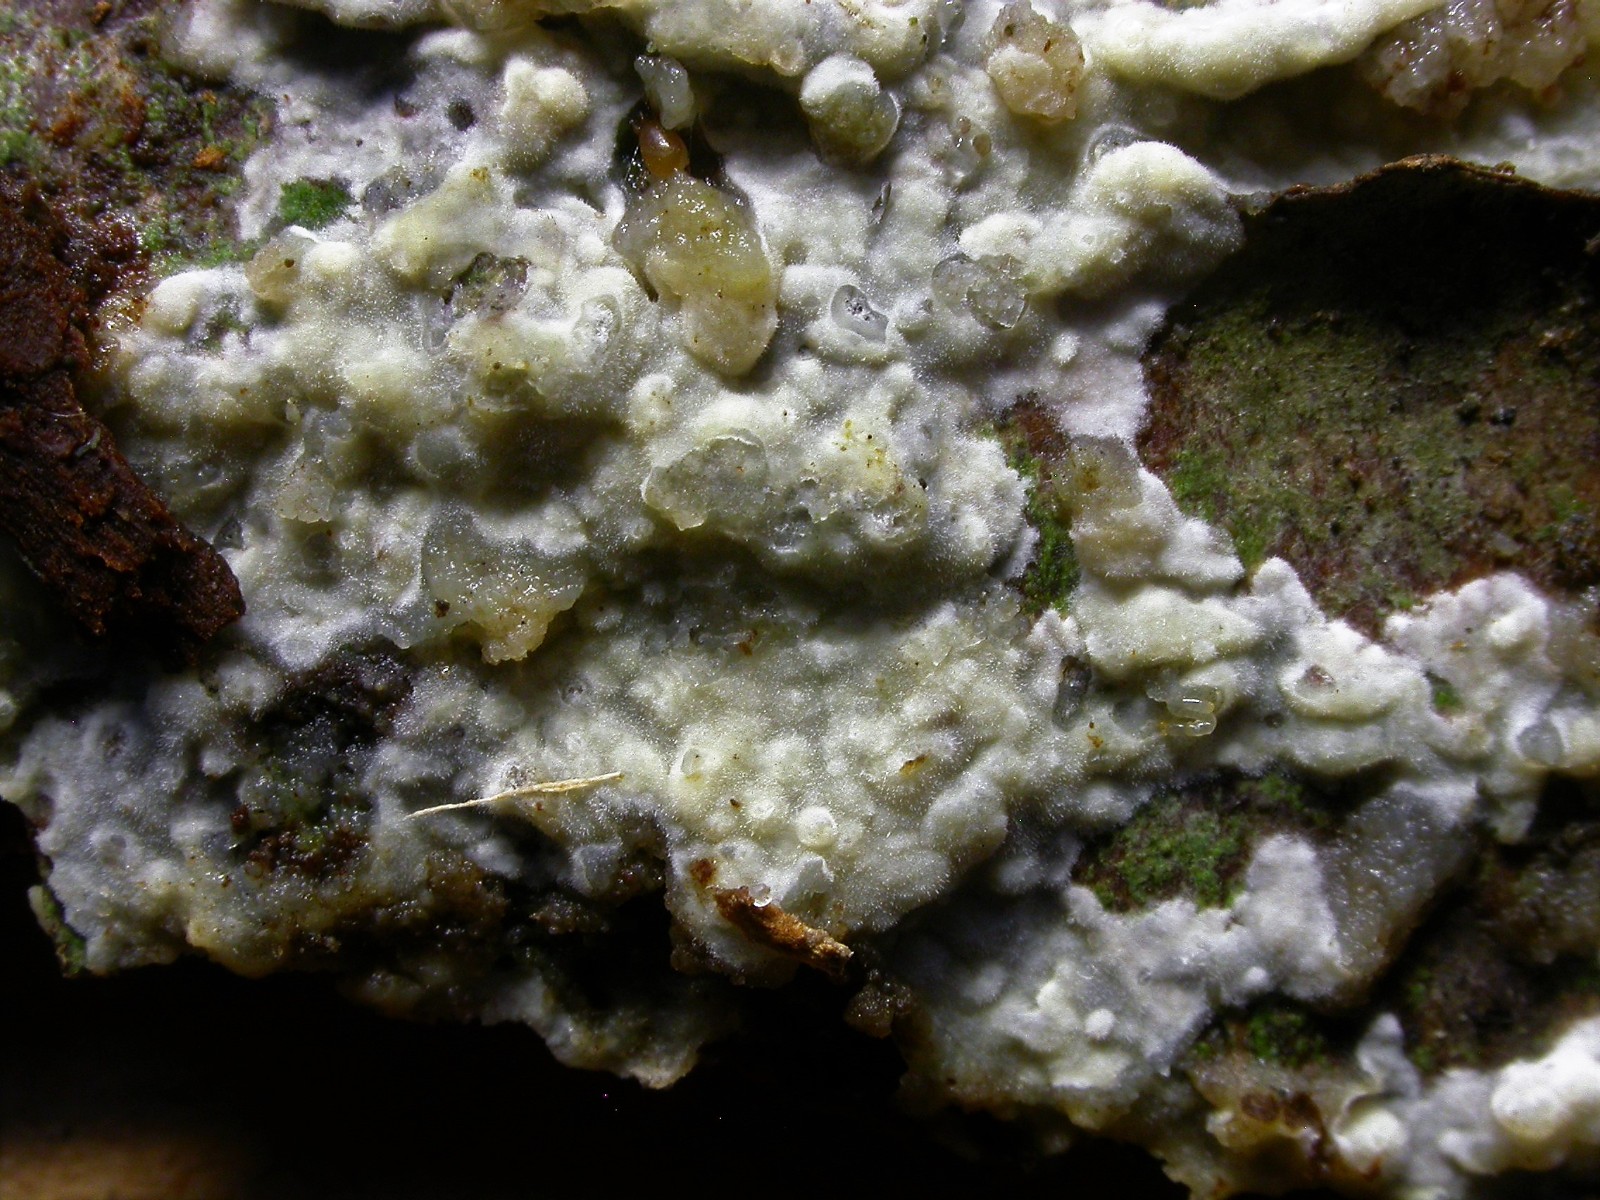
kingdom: Fungi
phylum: Basidiomycota
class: Agaricomycetes
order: Hymenochaetales
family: Rickenellaceae
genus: Peniophorella
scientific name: Peniophorella pubera
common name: dunet kalkskind
